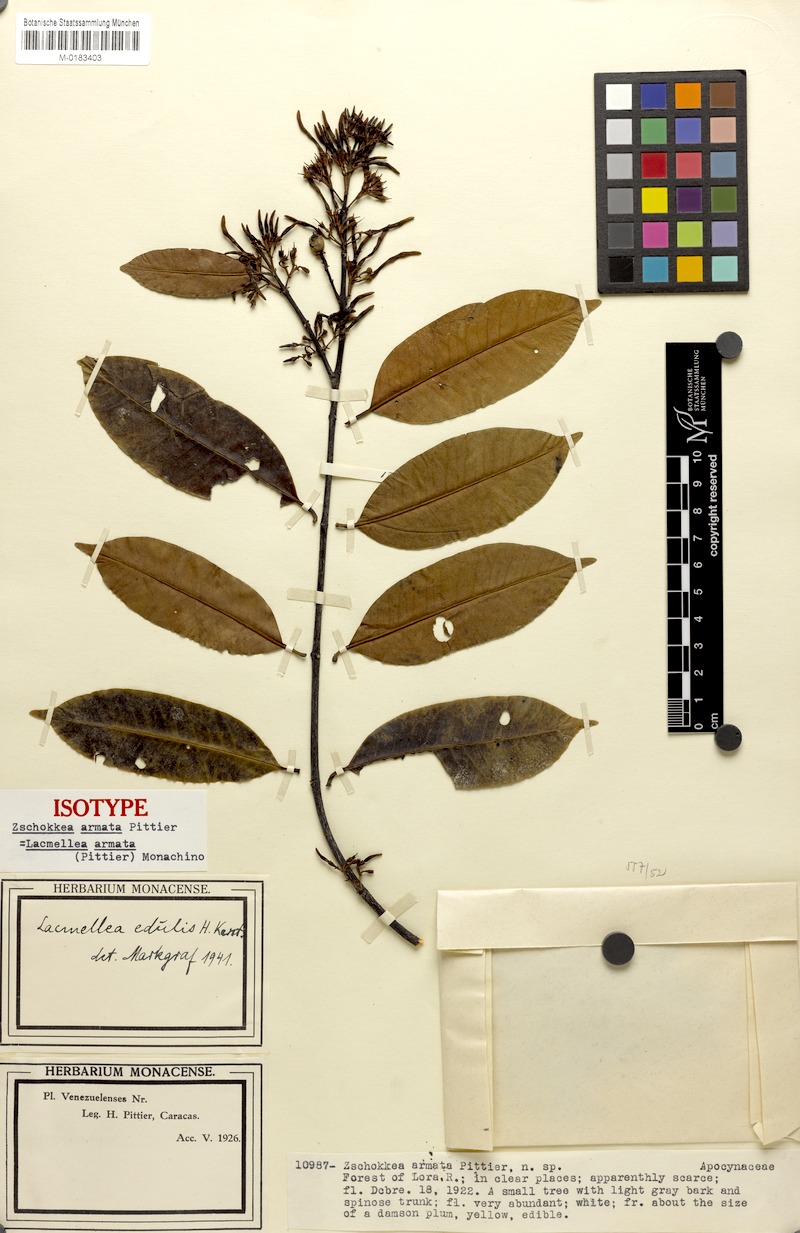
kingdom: Plantae
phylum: Tracheophyta
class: Magnoliopsida
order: Gentianales
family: Apocynaceae
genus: Lacmellea
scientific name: Lacmellea edulis
